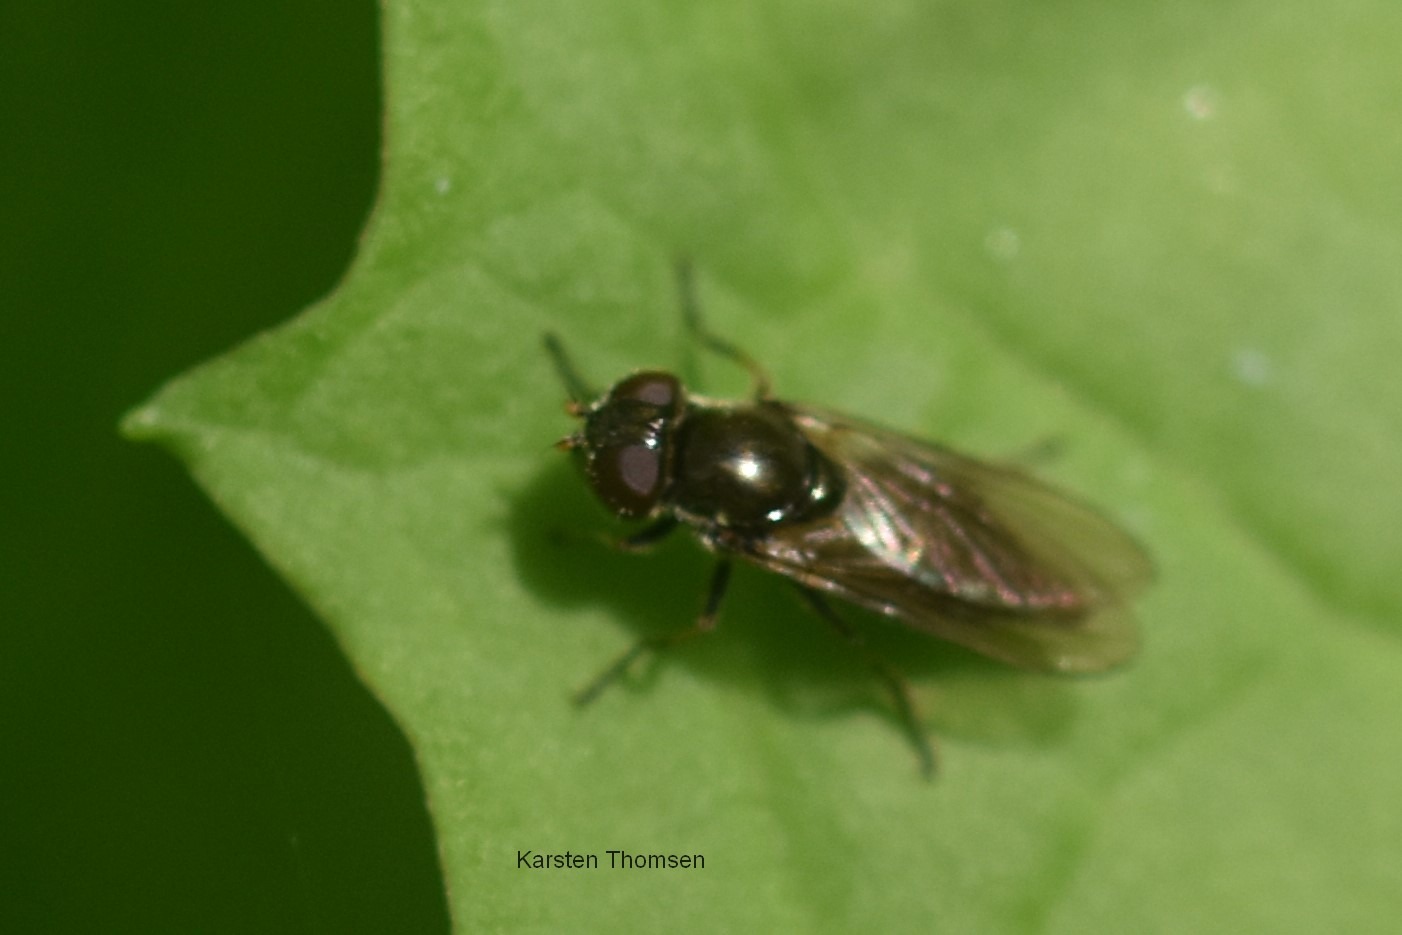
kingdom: Animalia
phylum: Arthropoda
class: Insecta
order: Diptera
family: Syrphidae
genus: Cheilosia
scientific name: Cheilosia frontalis
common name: Sump-urtesvirreflue
